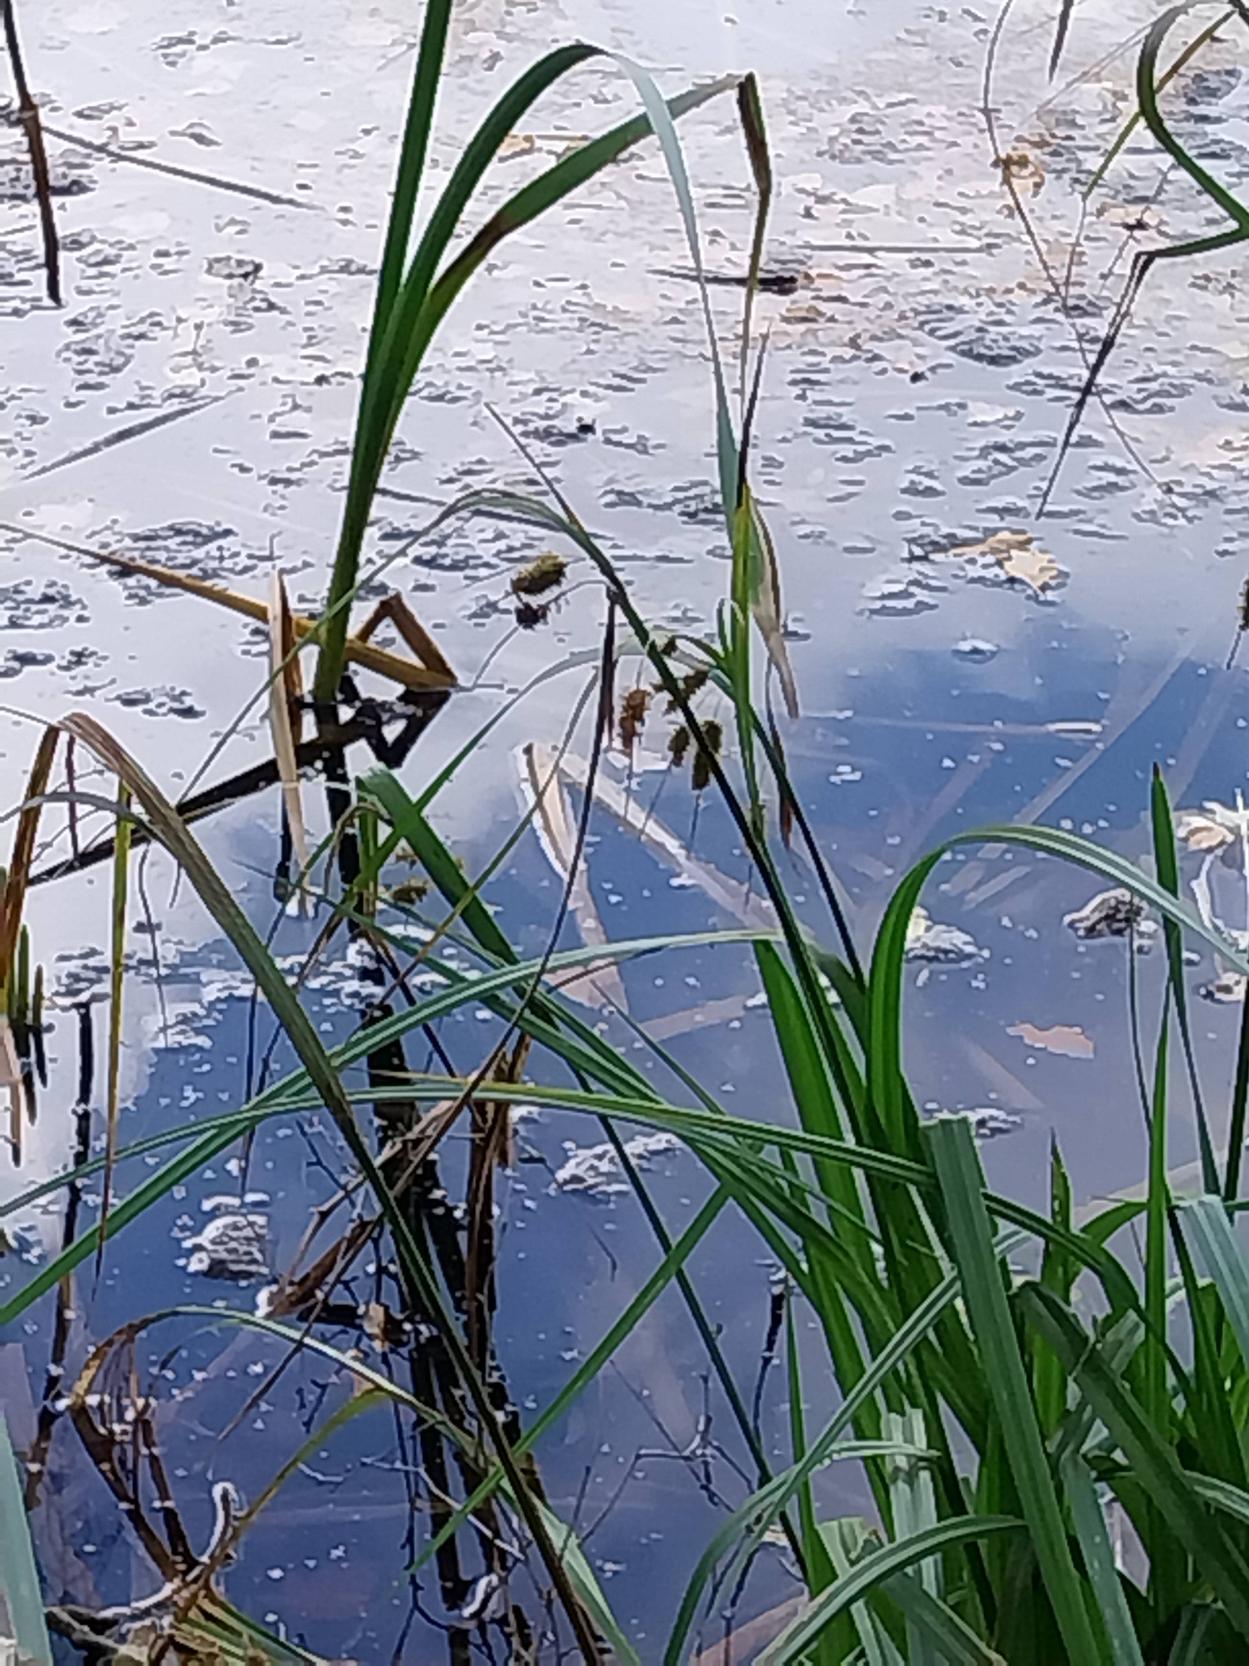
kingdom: Plantae
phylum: Tracheophyta
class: Liliopsida
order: Poales
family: Cyperaceae
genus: Carex
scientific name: Carex pseudocyperus
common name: Knippe-star
